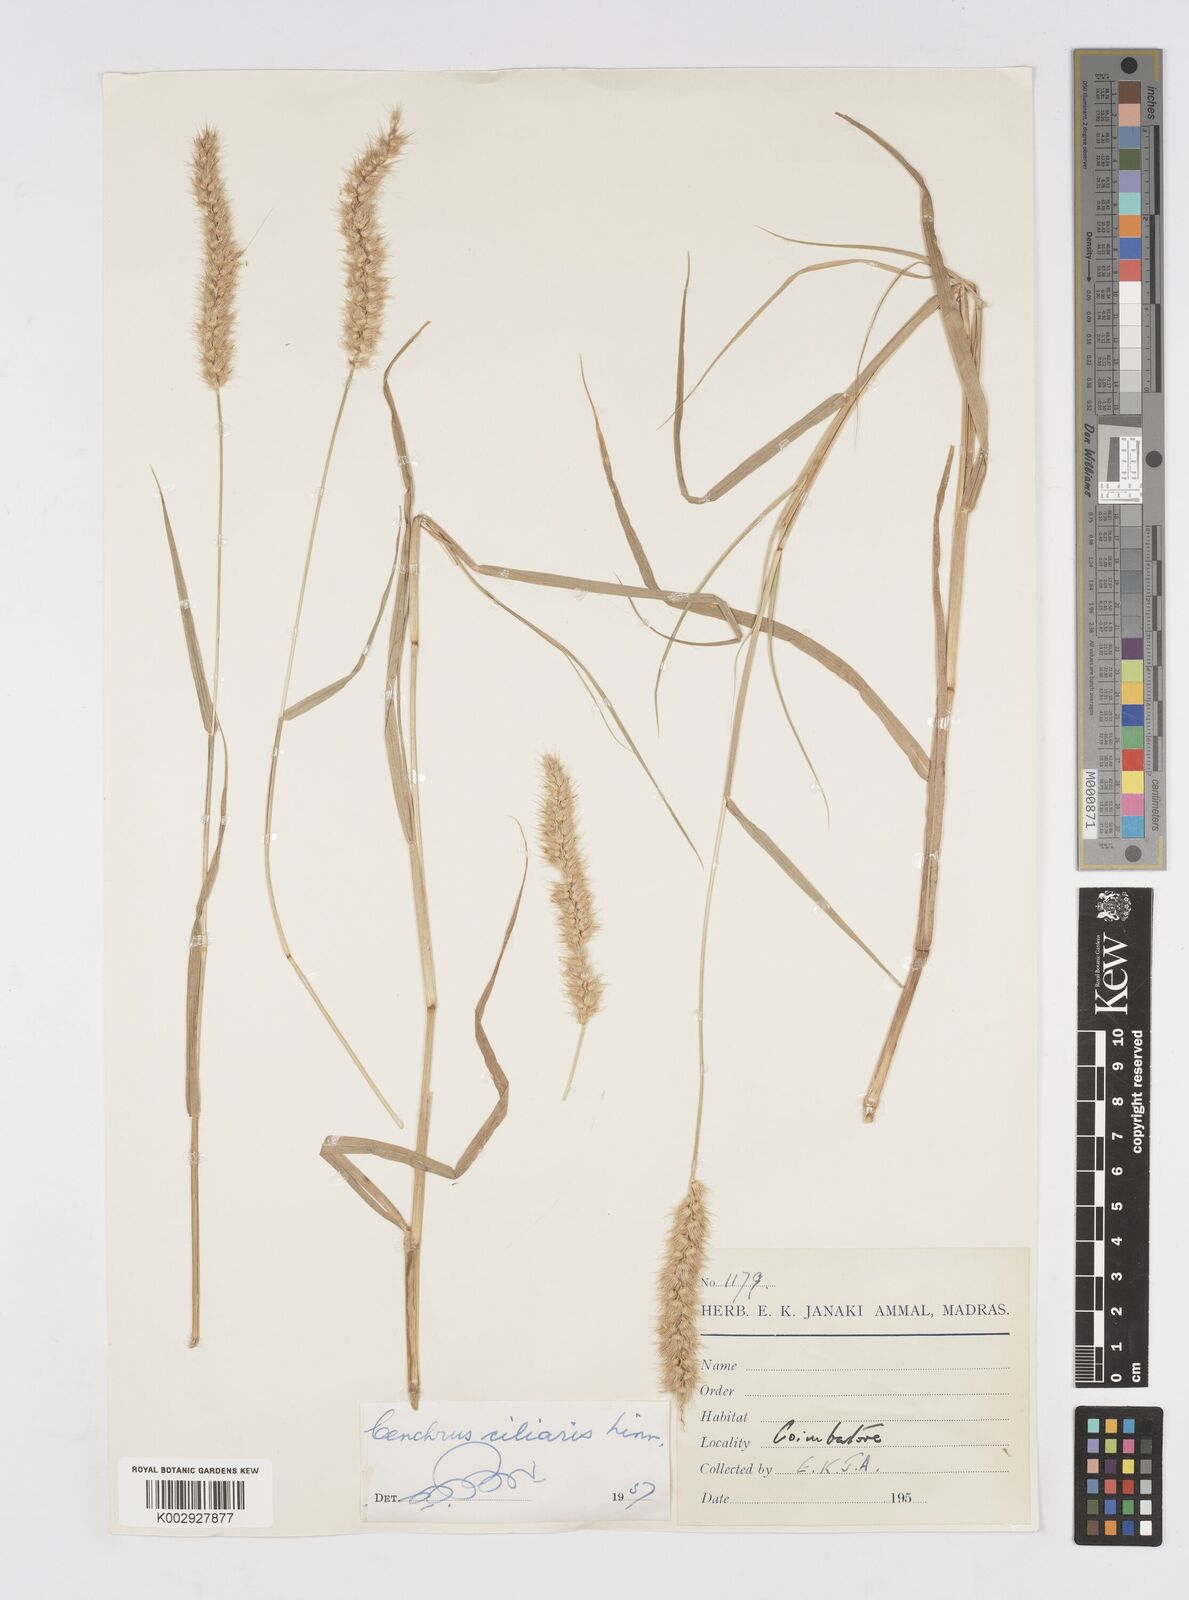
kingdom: Plantae
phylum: Tracheophyta
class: Liliopsida
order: Poales
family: Poaceae
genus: Cenchrus
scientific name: Cenchrus ciliaris
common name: Buffelgrass
